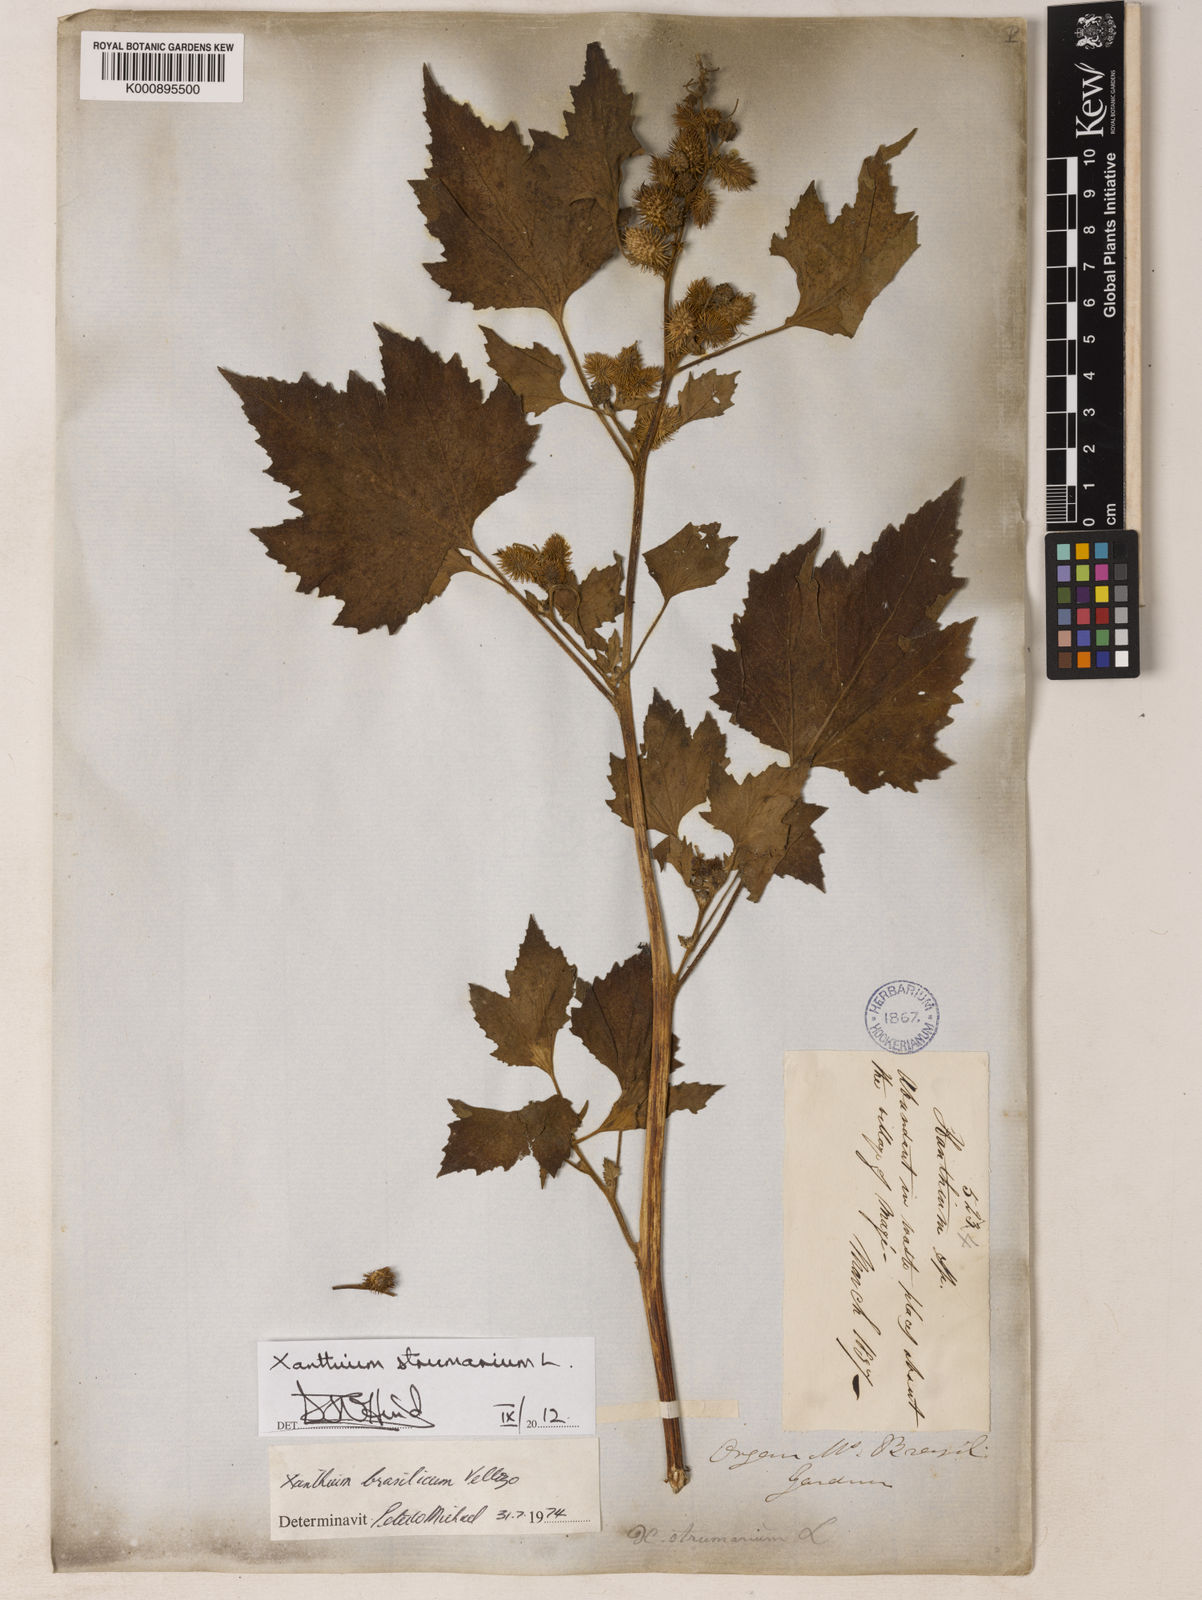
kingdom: Plantae
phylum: Tracheophyta
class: Magnoliopsida
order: Asterales
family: Asteraceae
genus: Xanthium
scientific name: Xanthium strumarium
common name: Rough cocklebur
